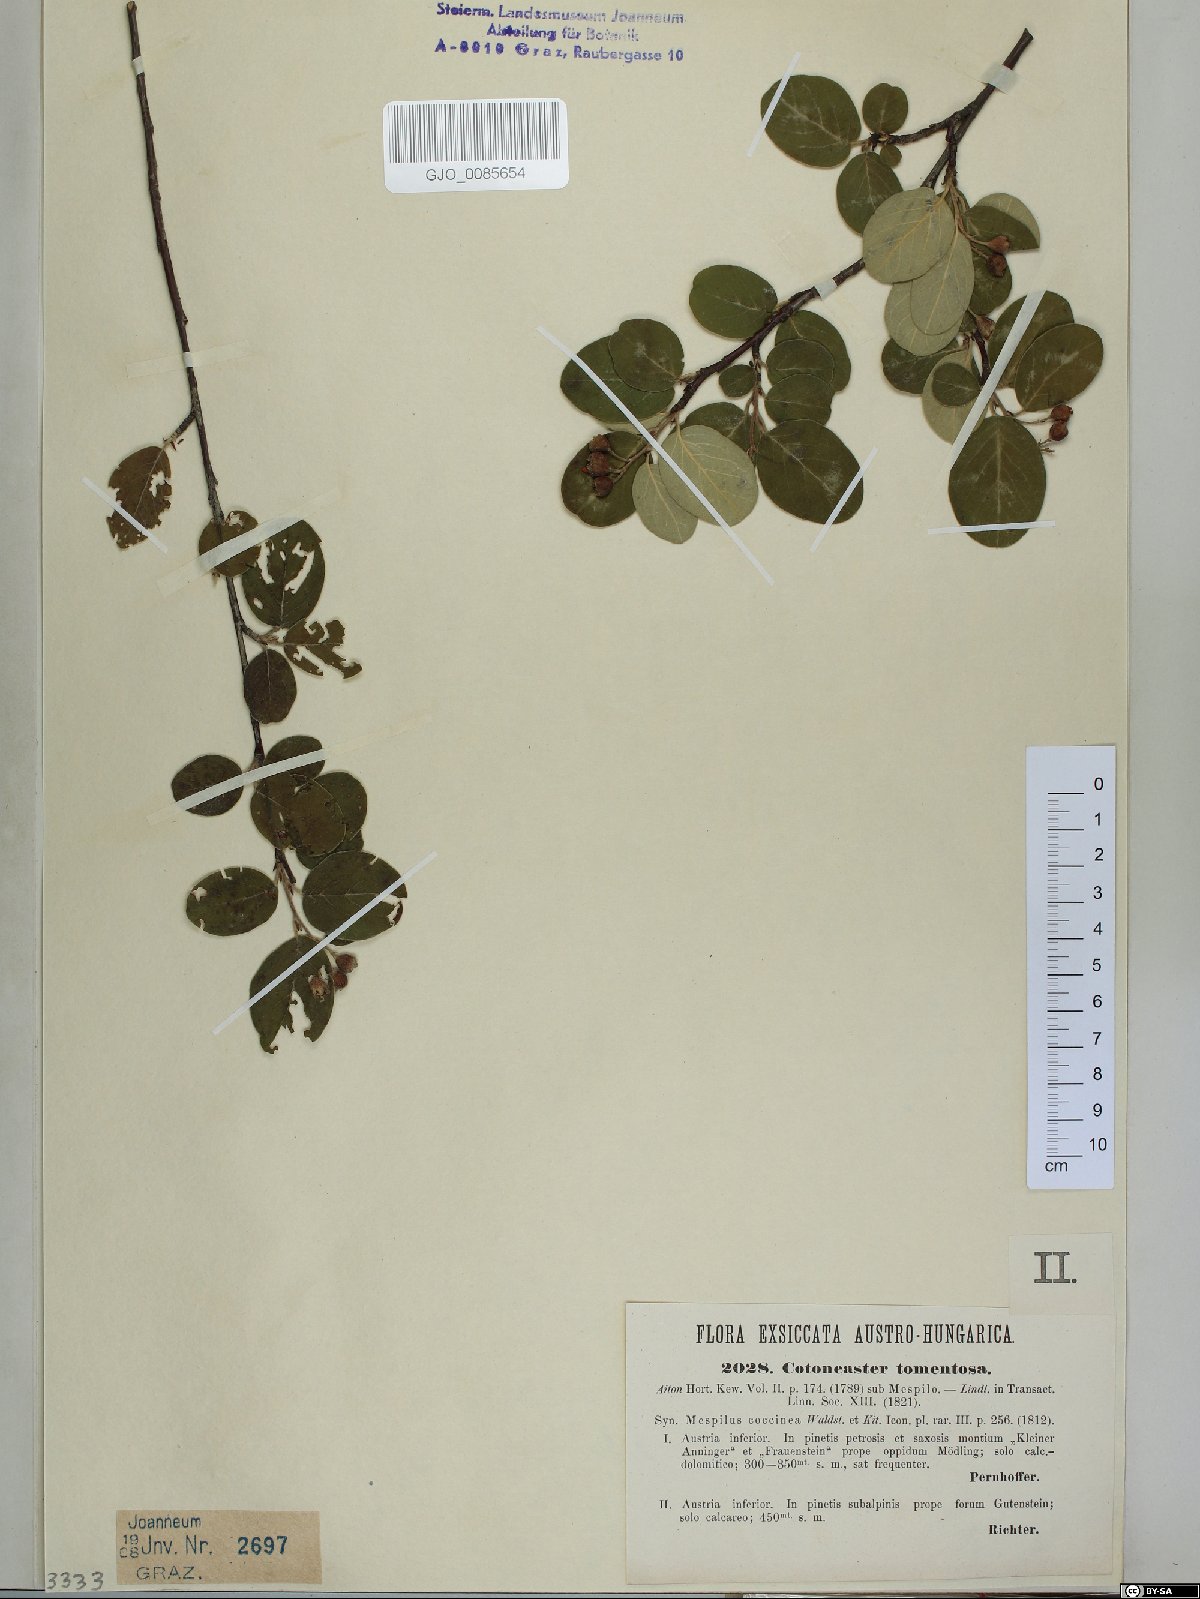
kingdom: Plantae
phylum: Tracheophyta
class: Magnoliopsida
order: Rosales
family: Rosaceae
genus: Cotoneaster
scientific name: Cotoneaster tomentosus
